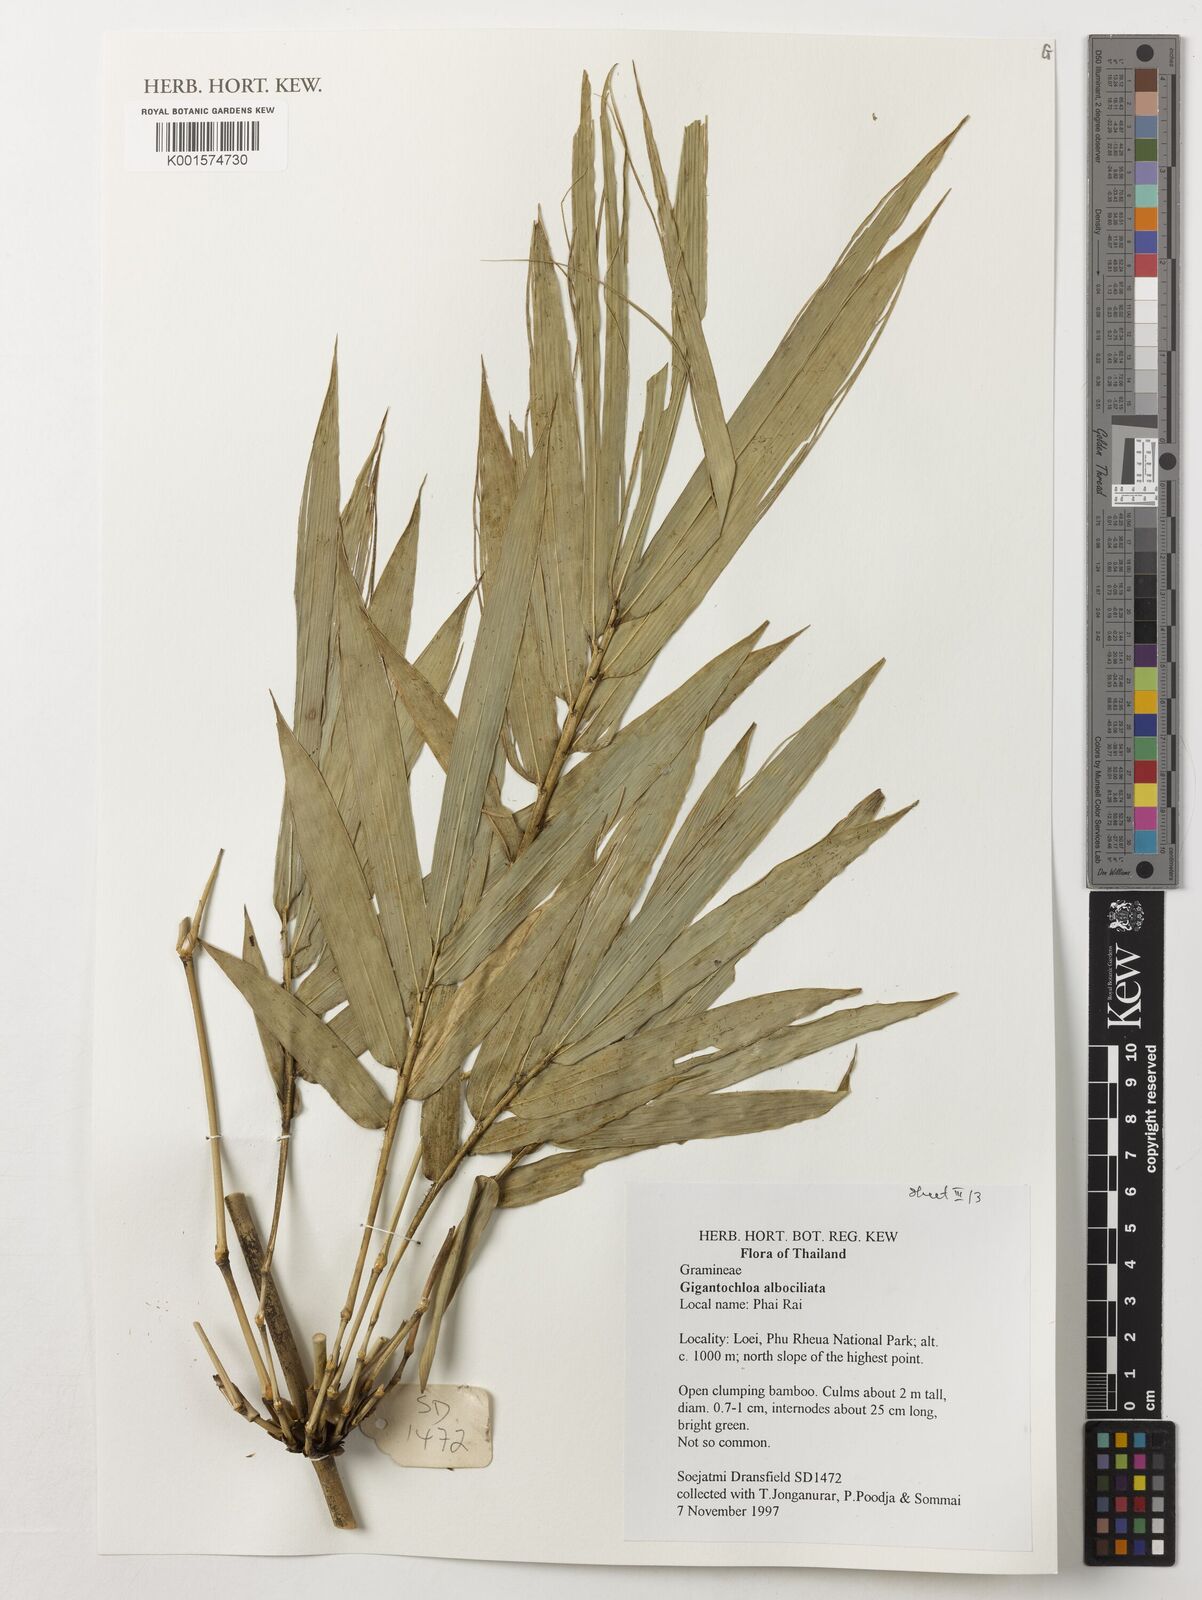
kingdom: Plantae
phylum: Tracheophyta
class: Liliopsida
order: Poales
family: Poaceae
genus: Gigantochloa
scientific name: Gigantochloa albociliata
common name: White-fringe gigantochloa
